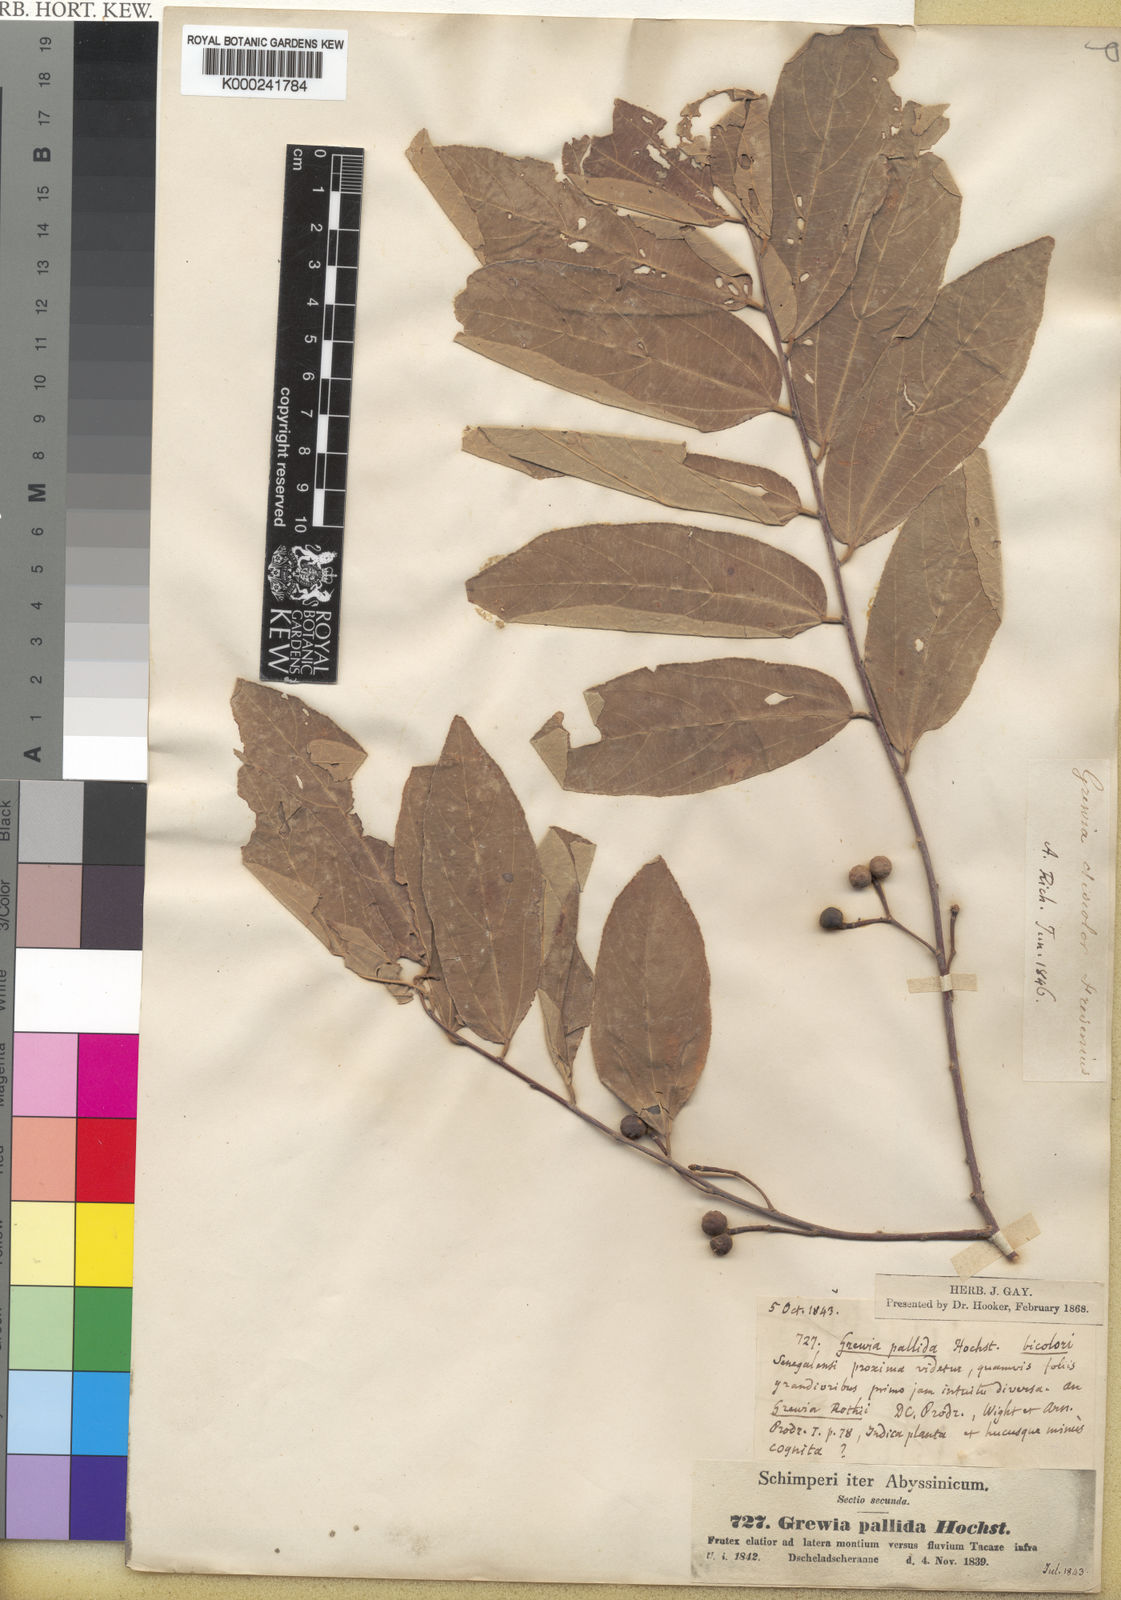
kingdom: Plantae
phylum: Tracheophyta
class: Magnoliopsida
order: Malvales
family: Malvaceae
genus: Grewia
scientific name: Grewia bicolor
